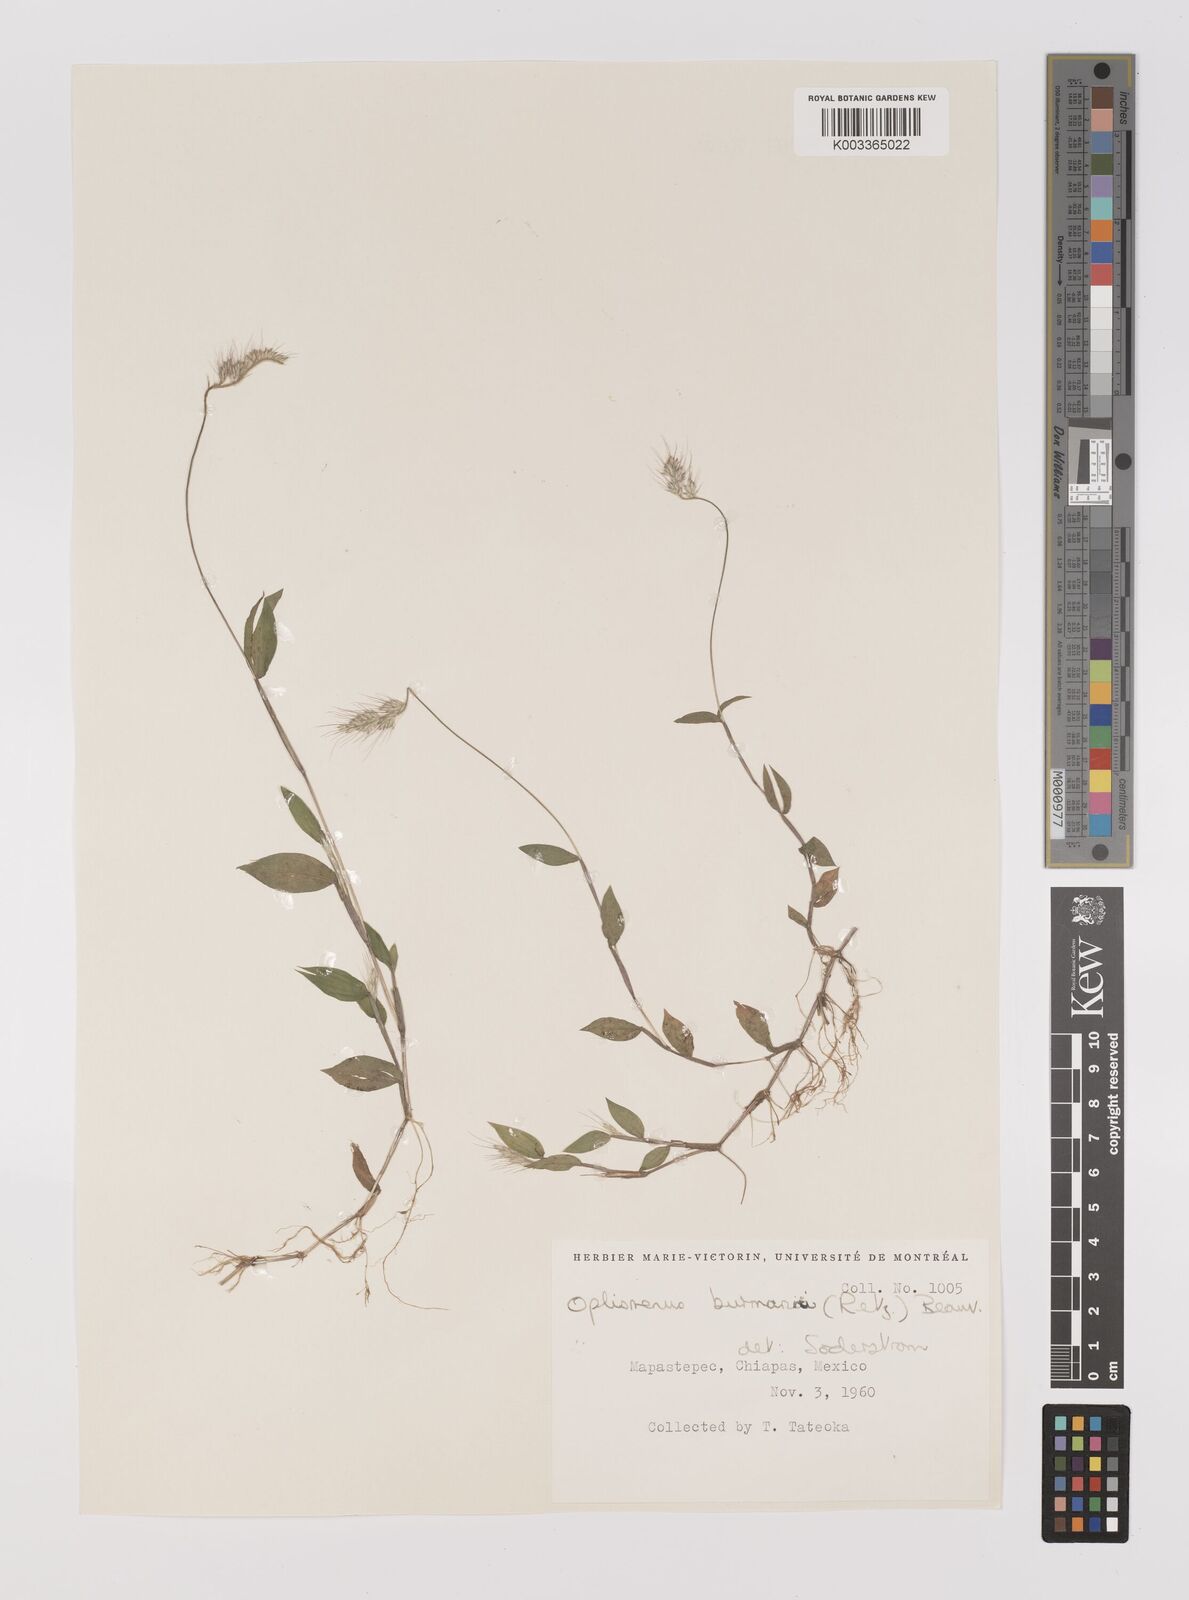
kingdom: Plantae
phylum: Tracheophyta
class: Liliopsida
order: Poales
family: Poaceae
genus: Oplismenus
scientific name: Oplismenus burmanni
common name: Burmann's basketgrass
